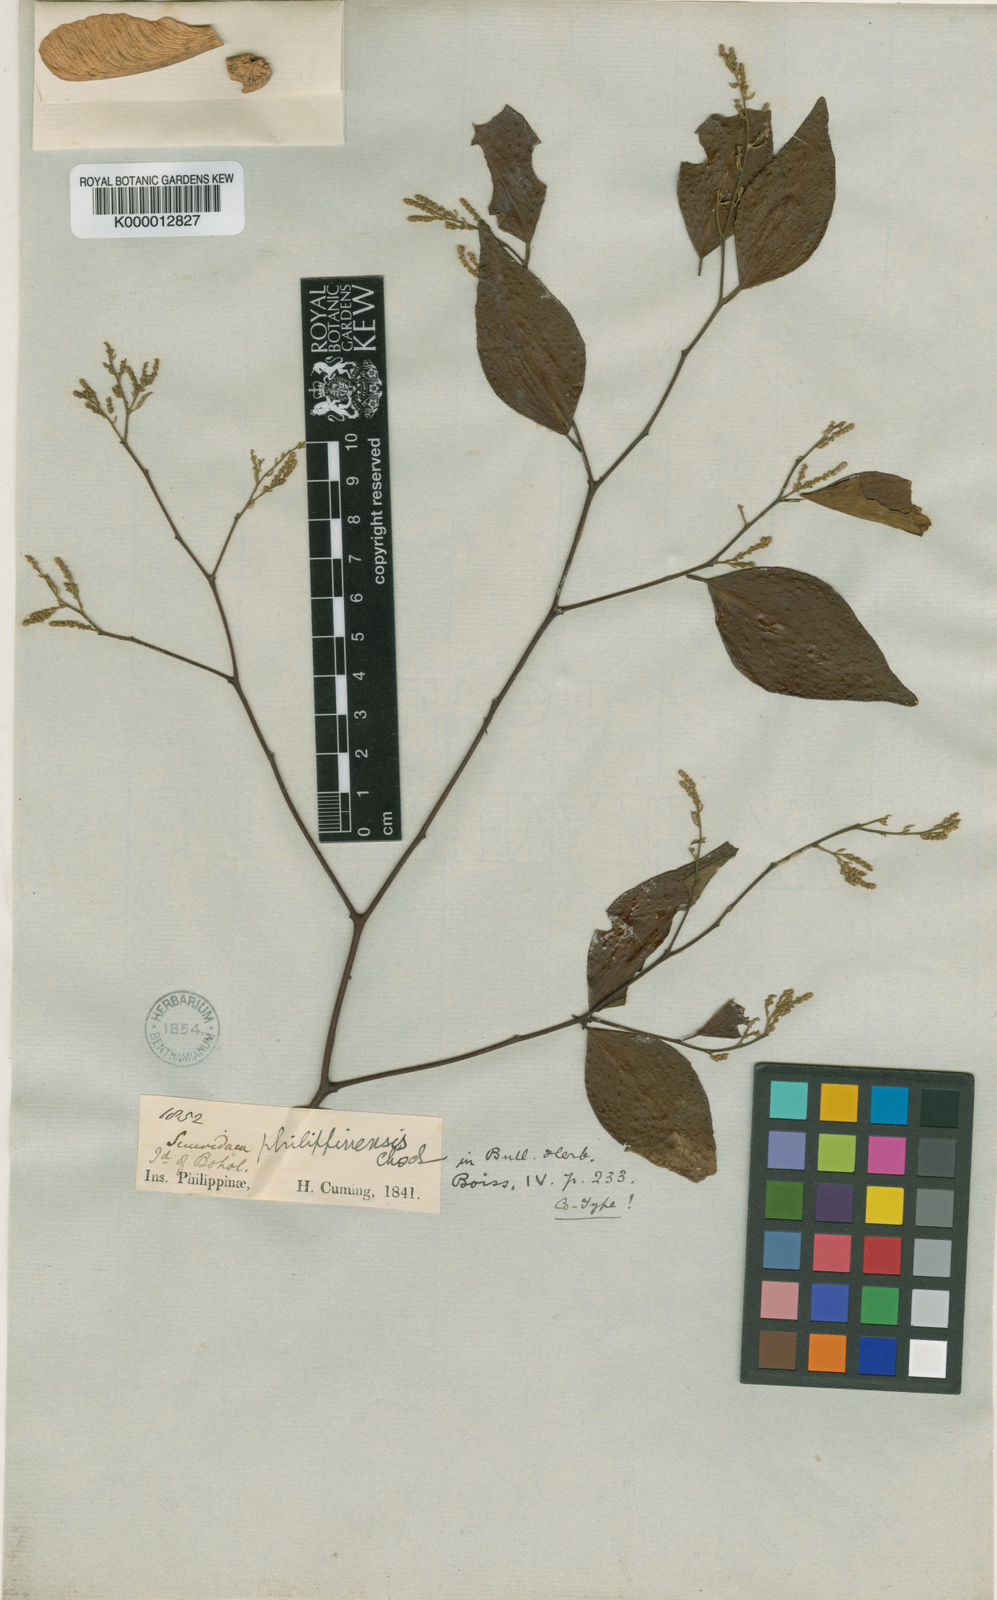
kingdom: Plantae
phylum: Tracheophyta
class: Magnoliopsida
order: Fabales
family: Polygalaceae
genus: Securidaca
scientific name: Securidaca philippinensis
